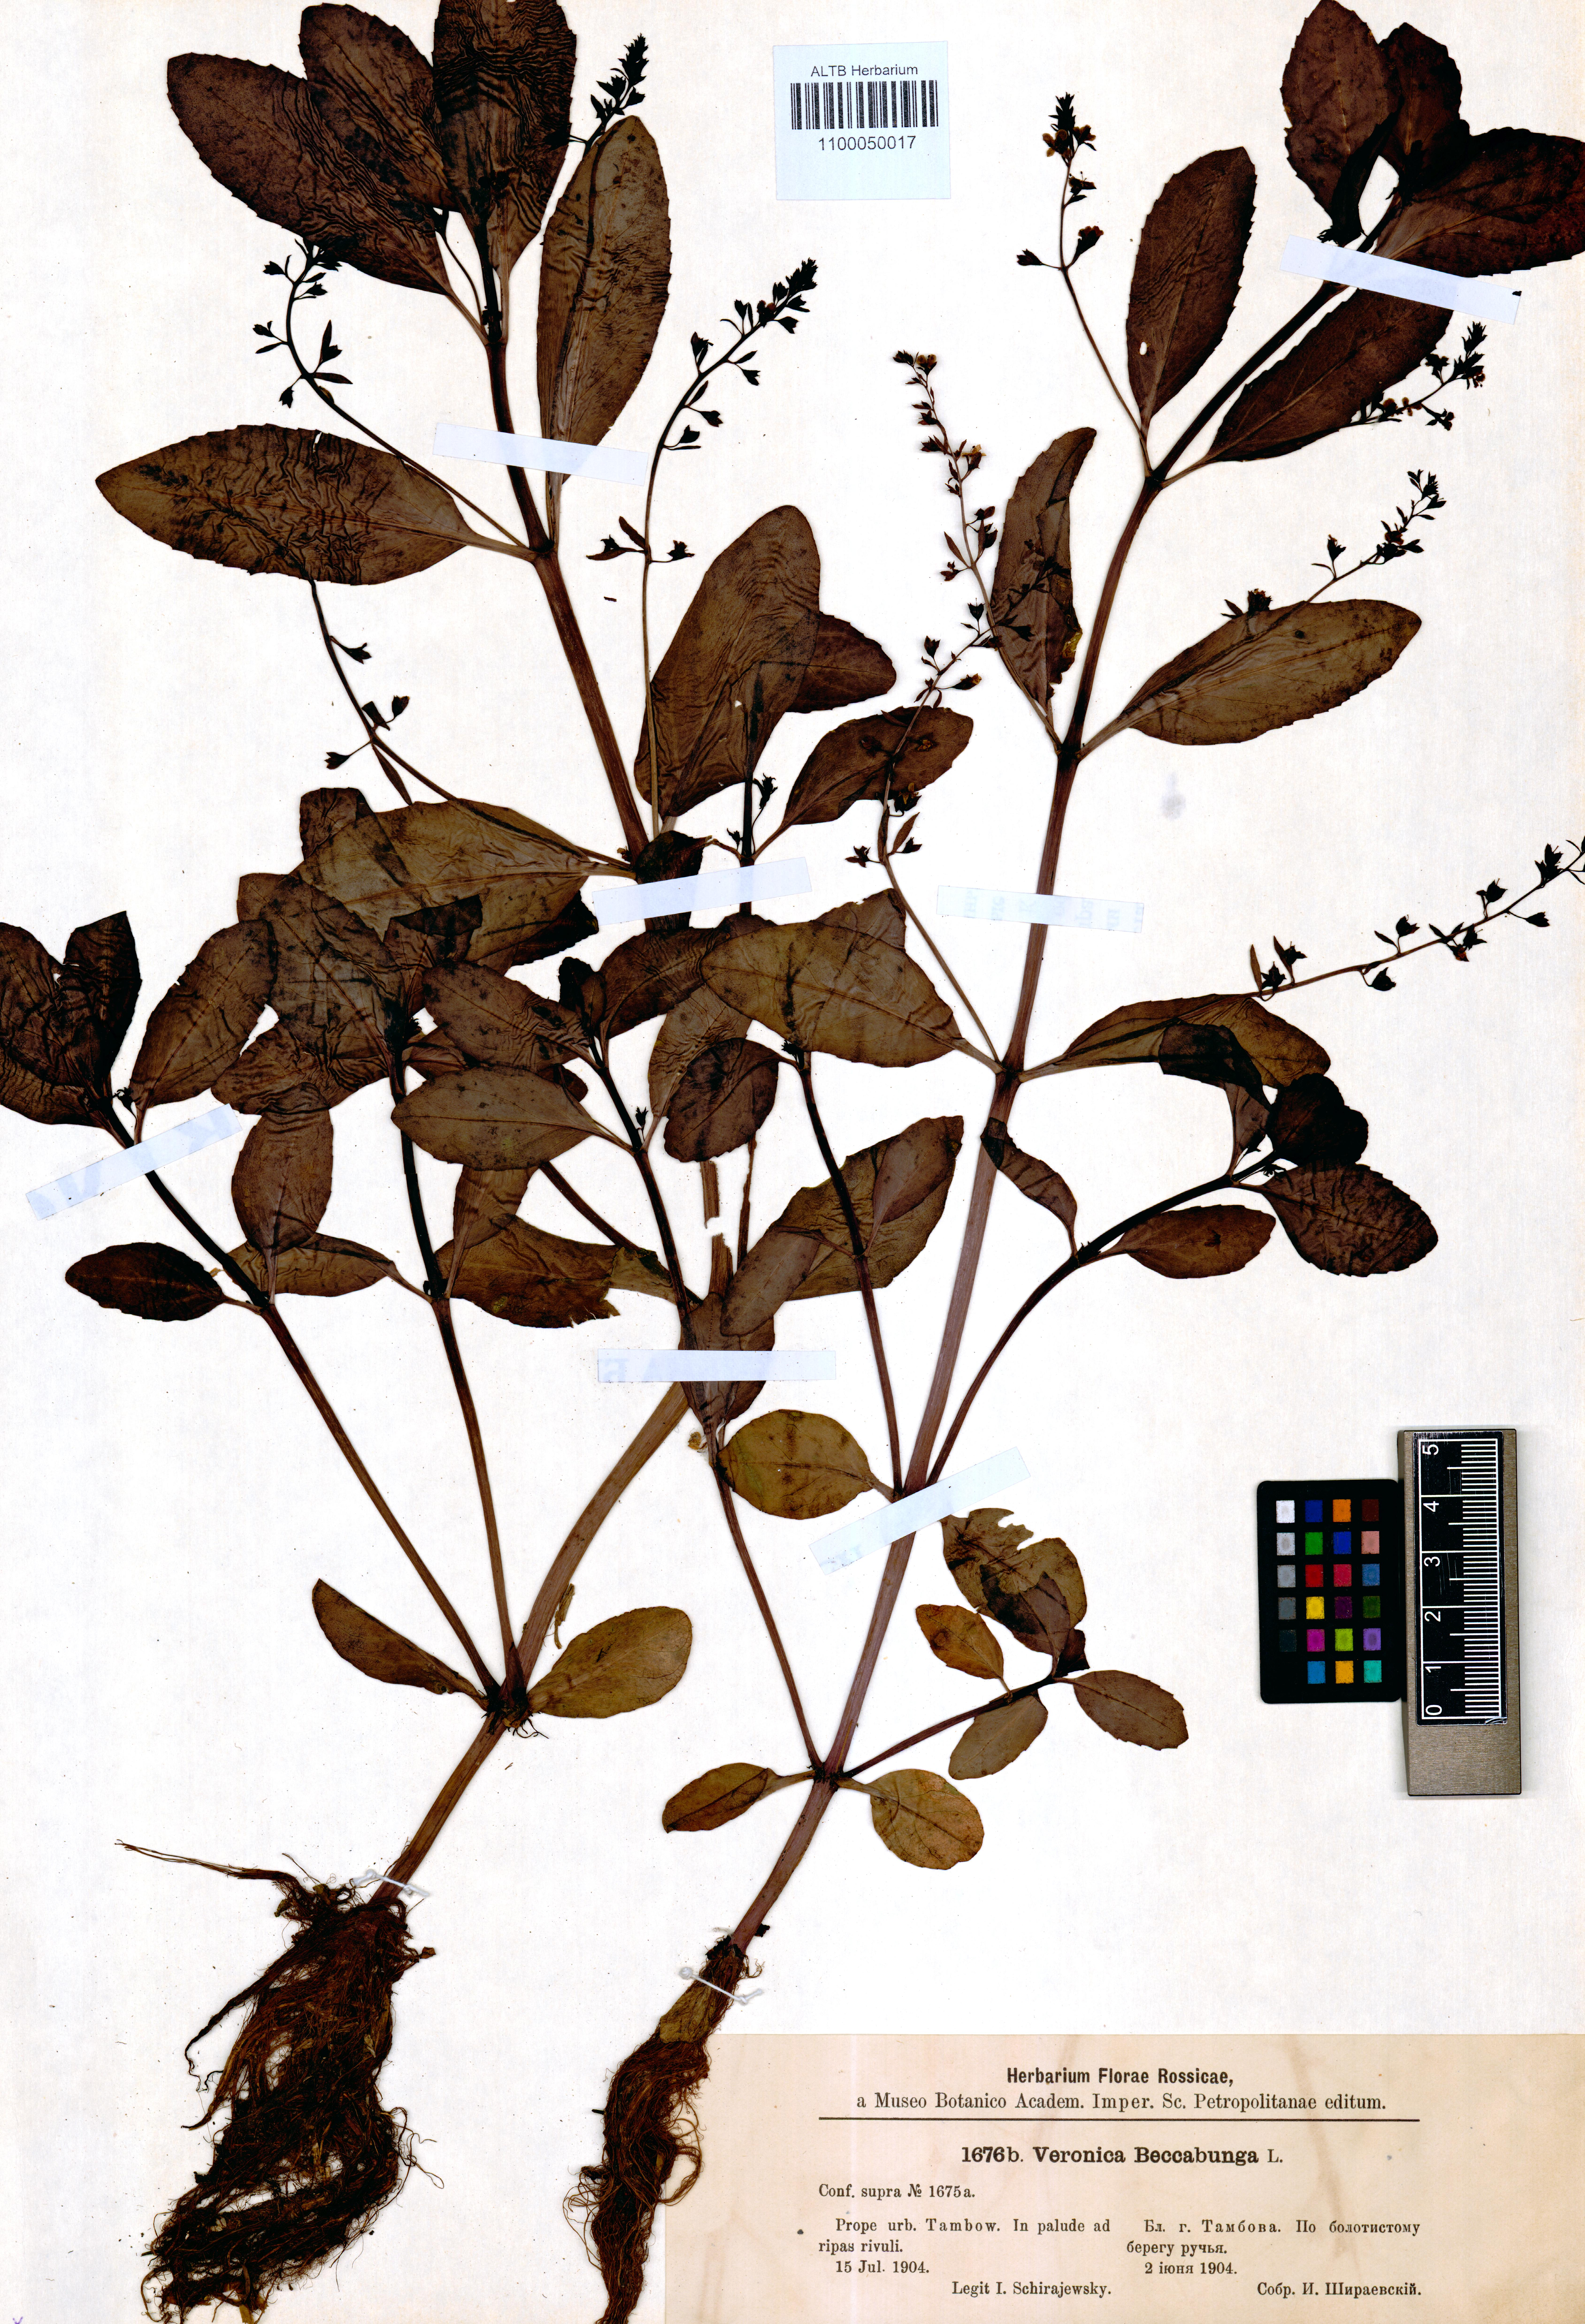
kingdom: Plantae
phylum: Tracheophyta
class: Magnoliopsida
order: Lamiales
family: Plantaginaceae
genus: Veronica
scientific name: Veronica beccabunga
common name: Brooklime
